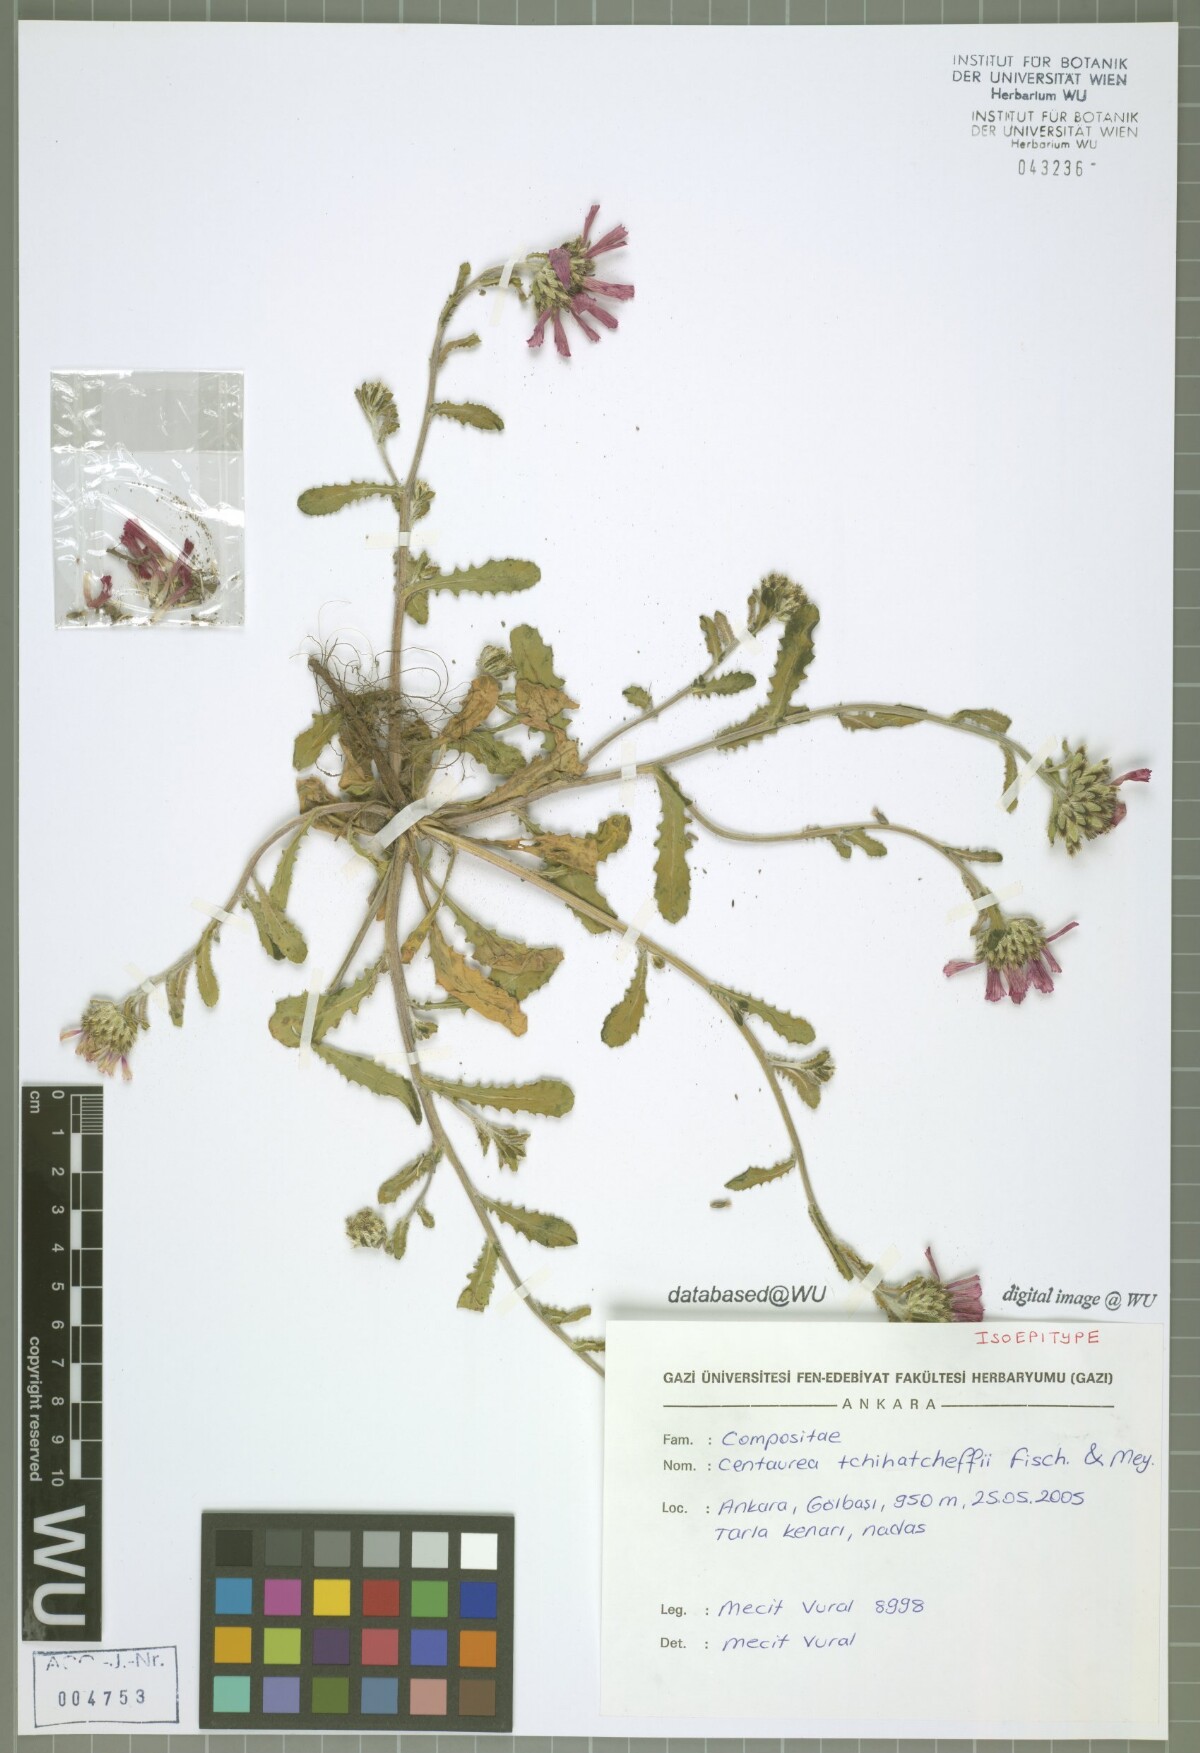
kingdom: Plantae
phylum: Tracheophyta
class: Magnoliopsida
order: Asterales
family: Asteraceae
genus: Centaurea
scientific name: Centaurea tchihatcheffii
